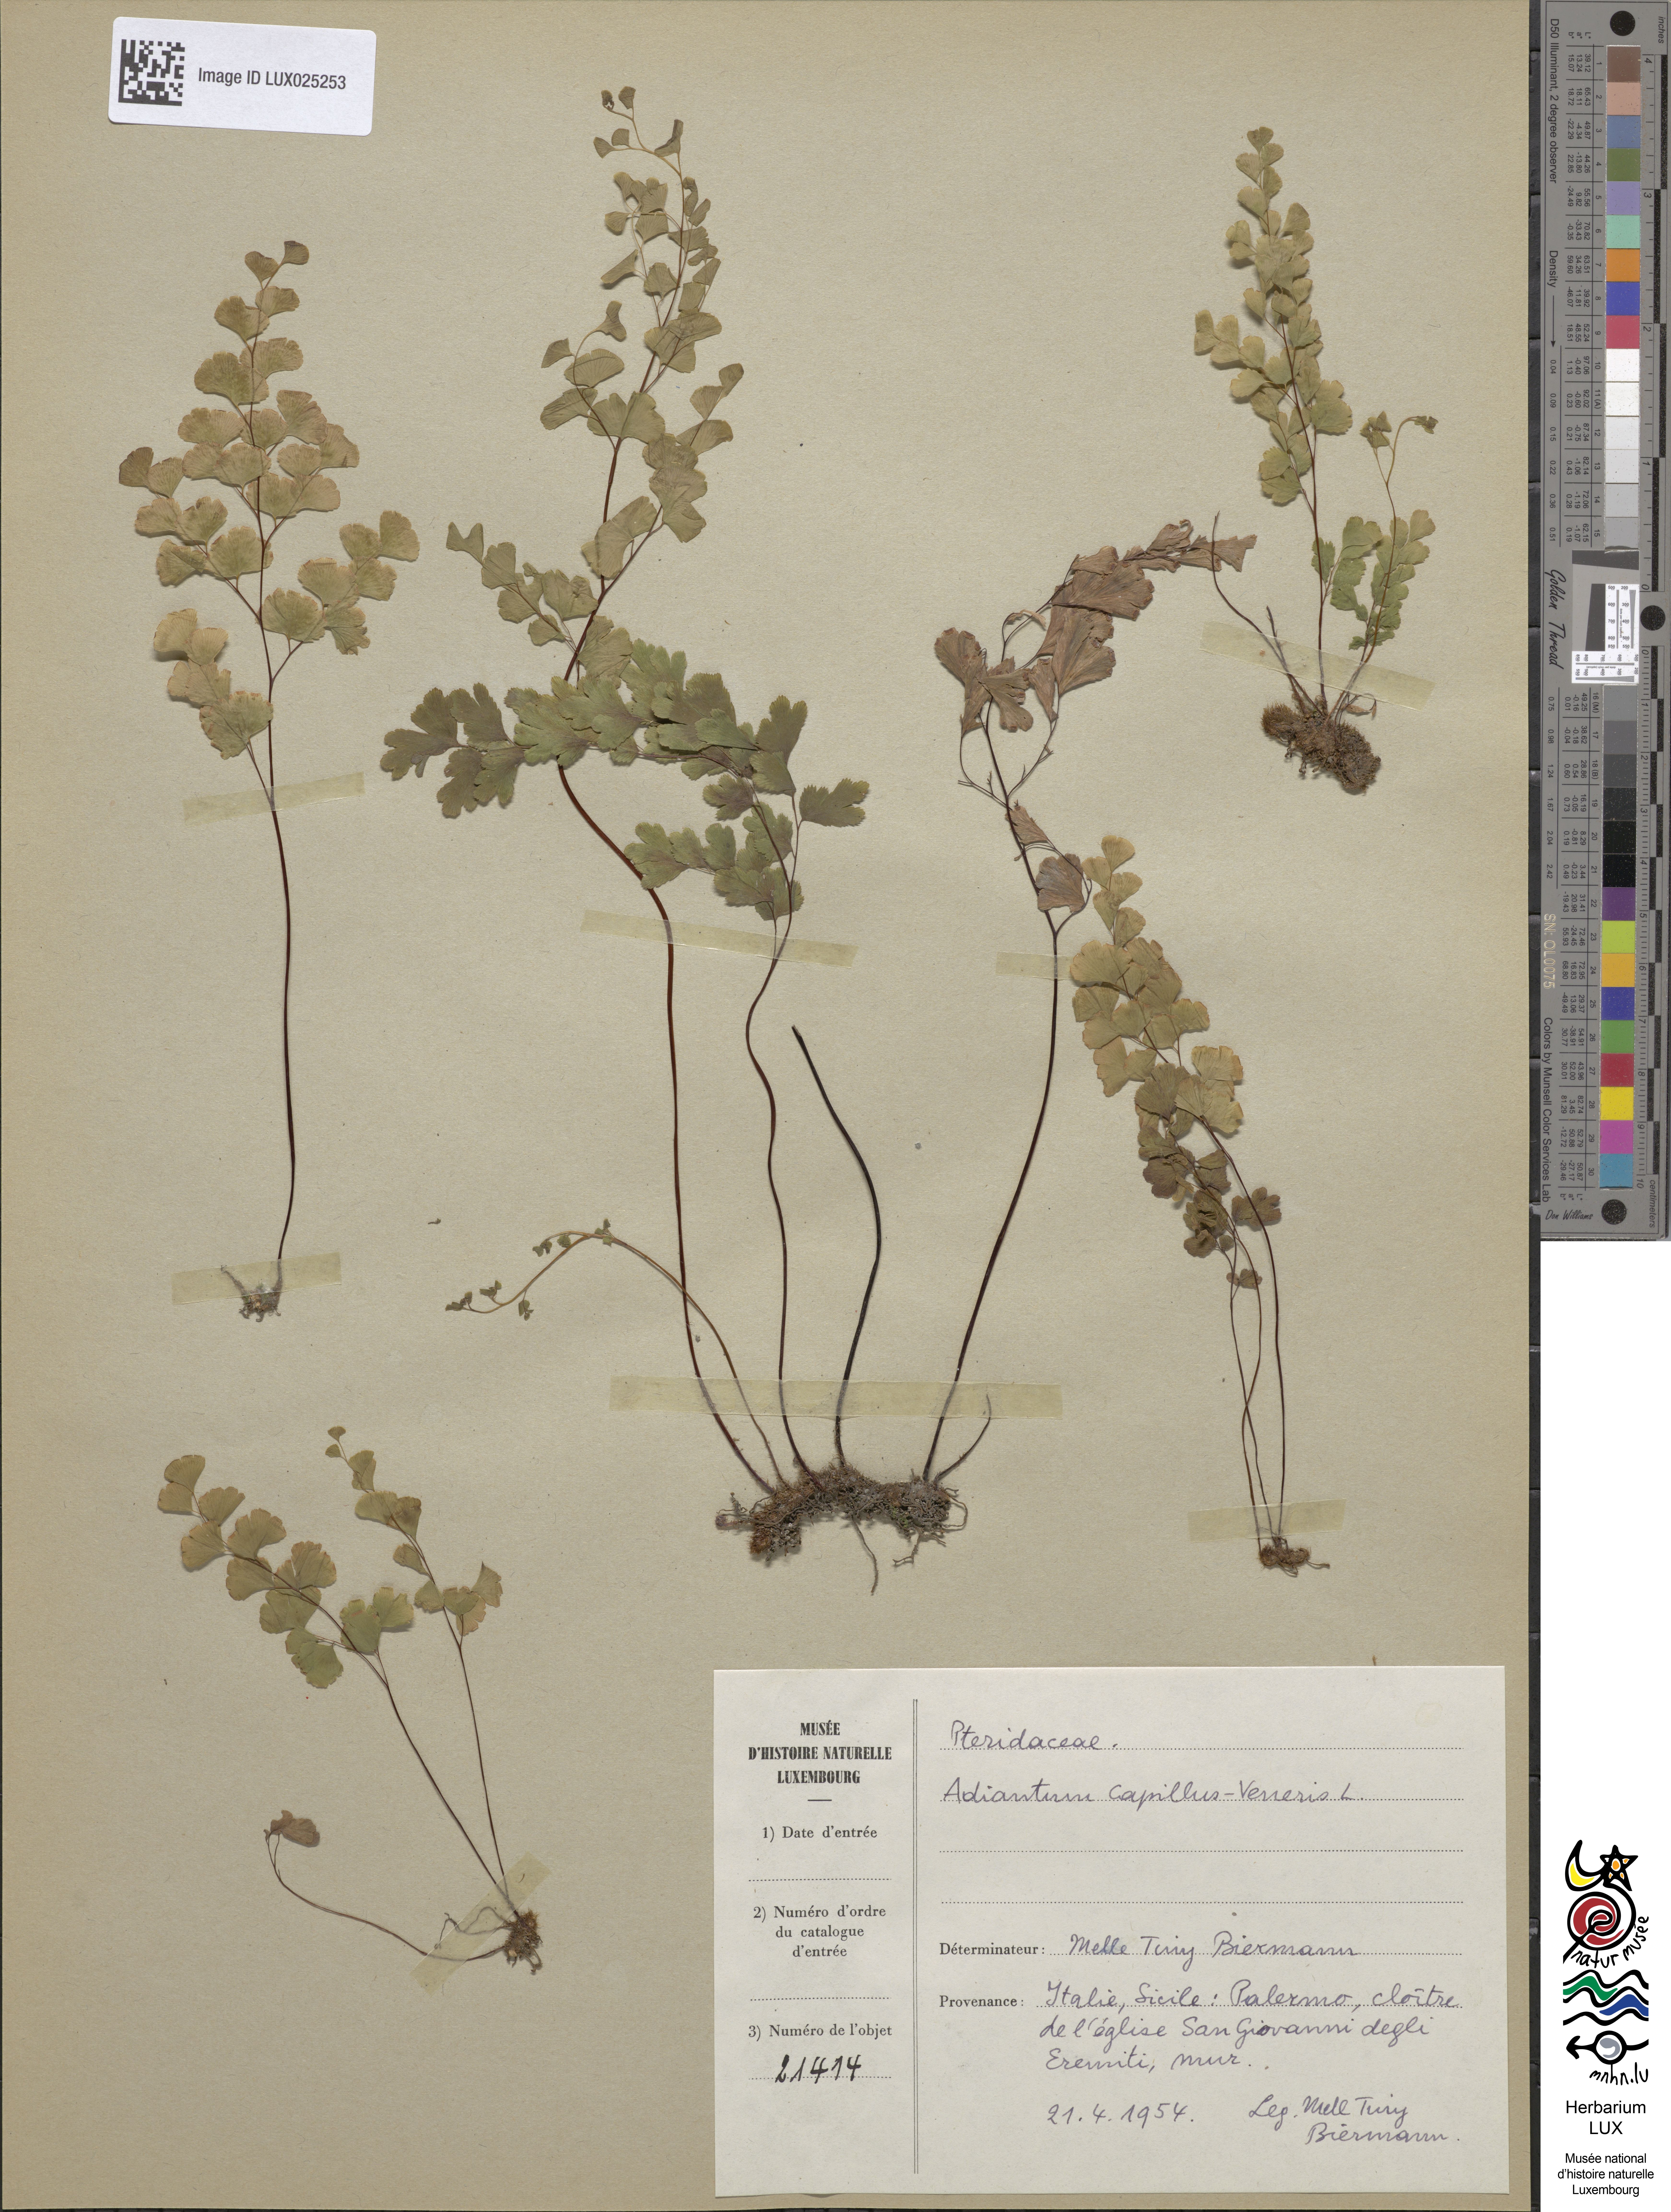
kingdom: Plantae
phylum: Tracheophyta
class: Polypodiopsida
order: Polypodiales
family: Pteridaceae
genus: Adiantum
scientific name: Adiantum capillus-veneris
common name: Maidenhair fern
